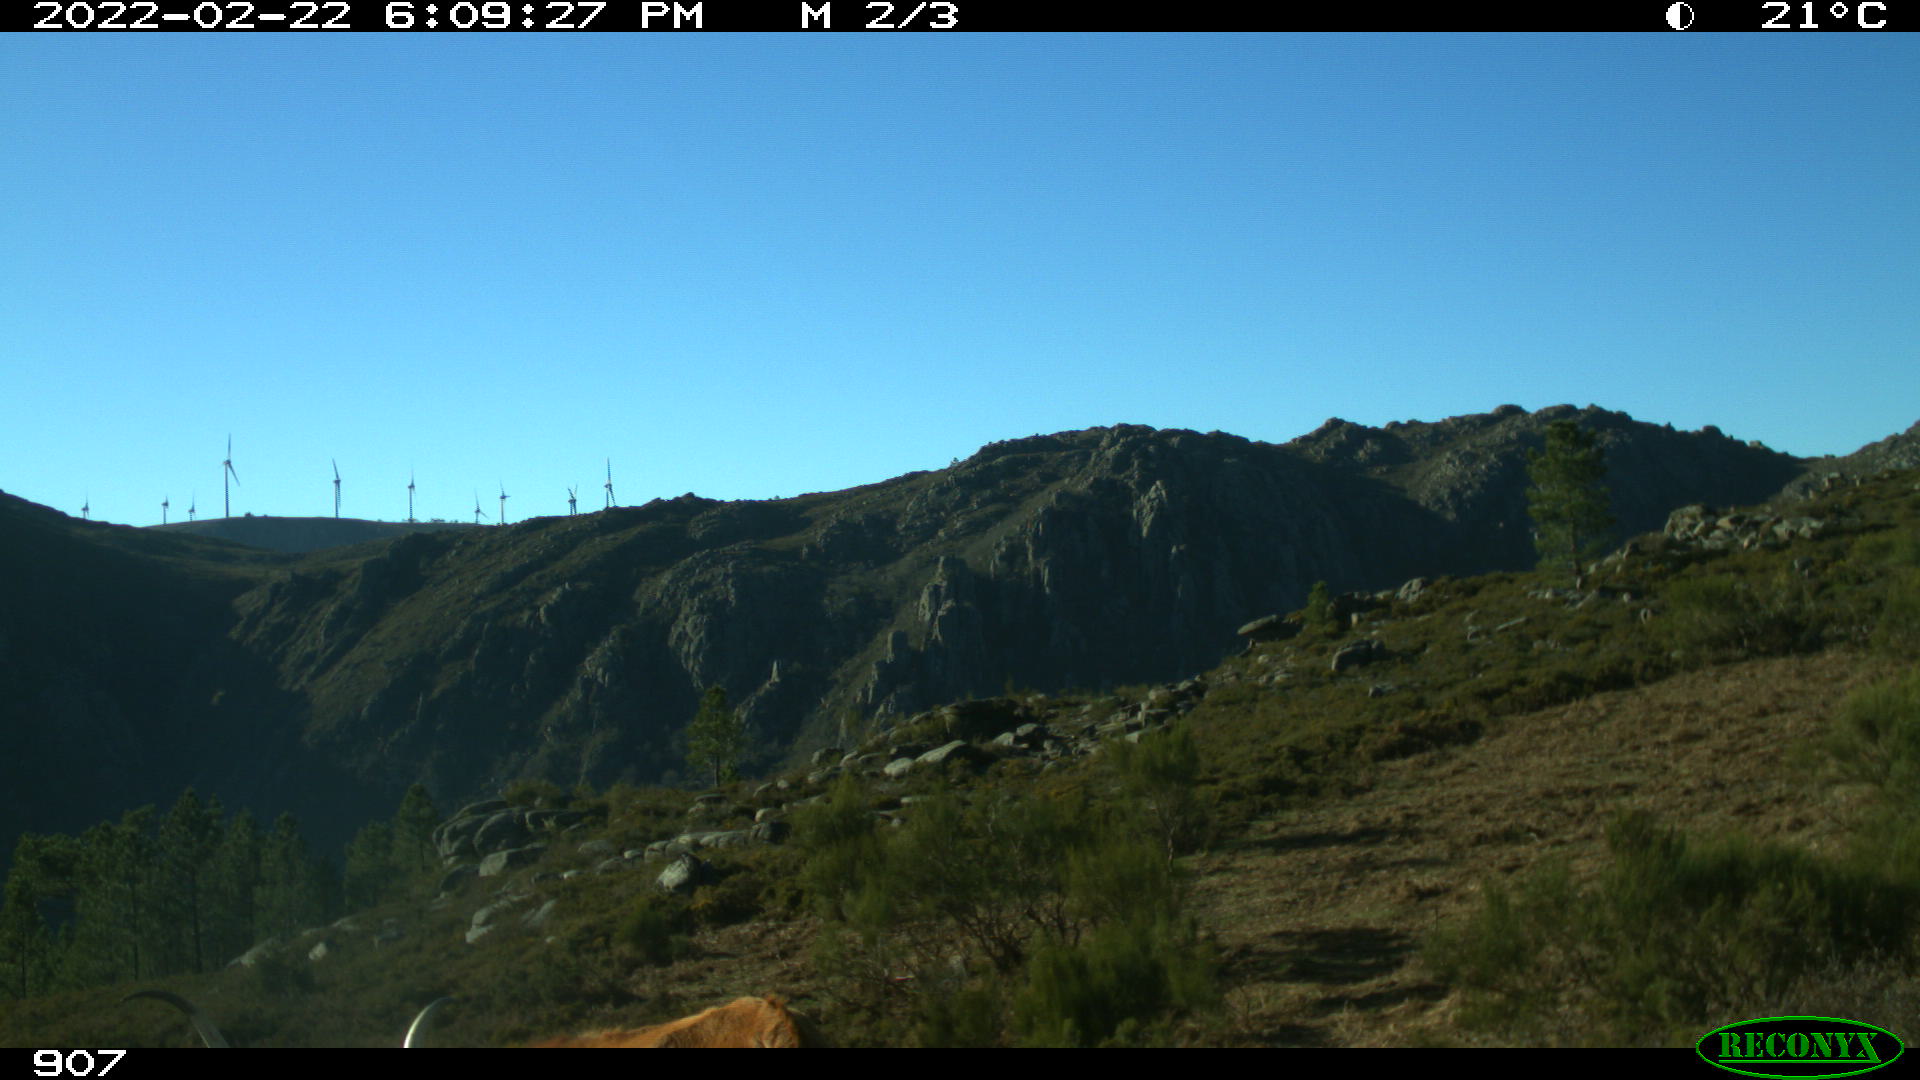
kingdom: Animalia
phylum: Chordata
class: Mammalia
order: Artiodactyla
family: Bovidae
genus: Bos
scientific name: Bos taurus
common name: Domesticated cattle
